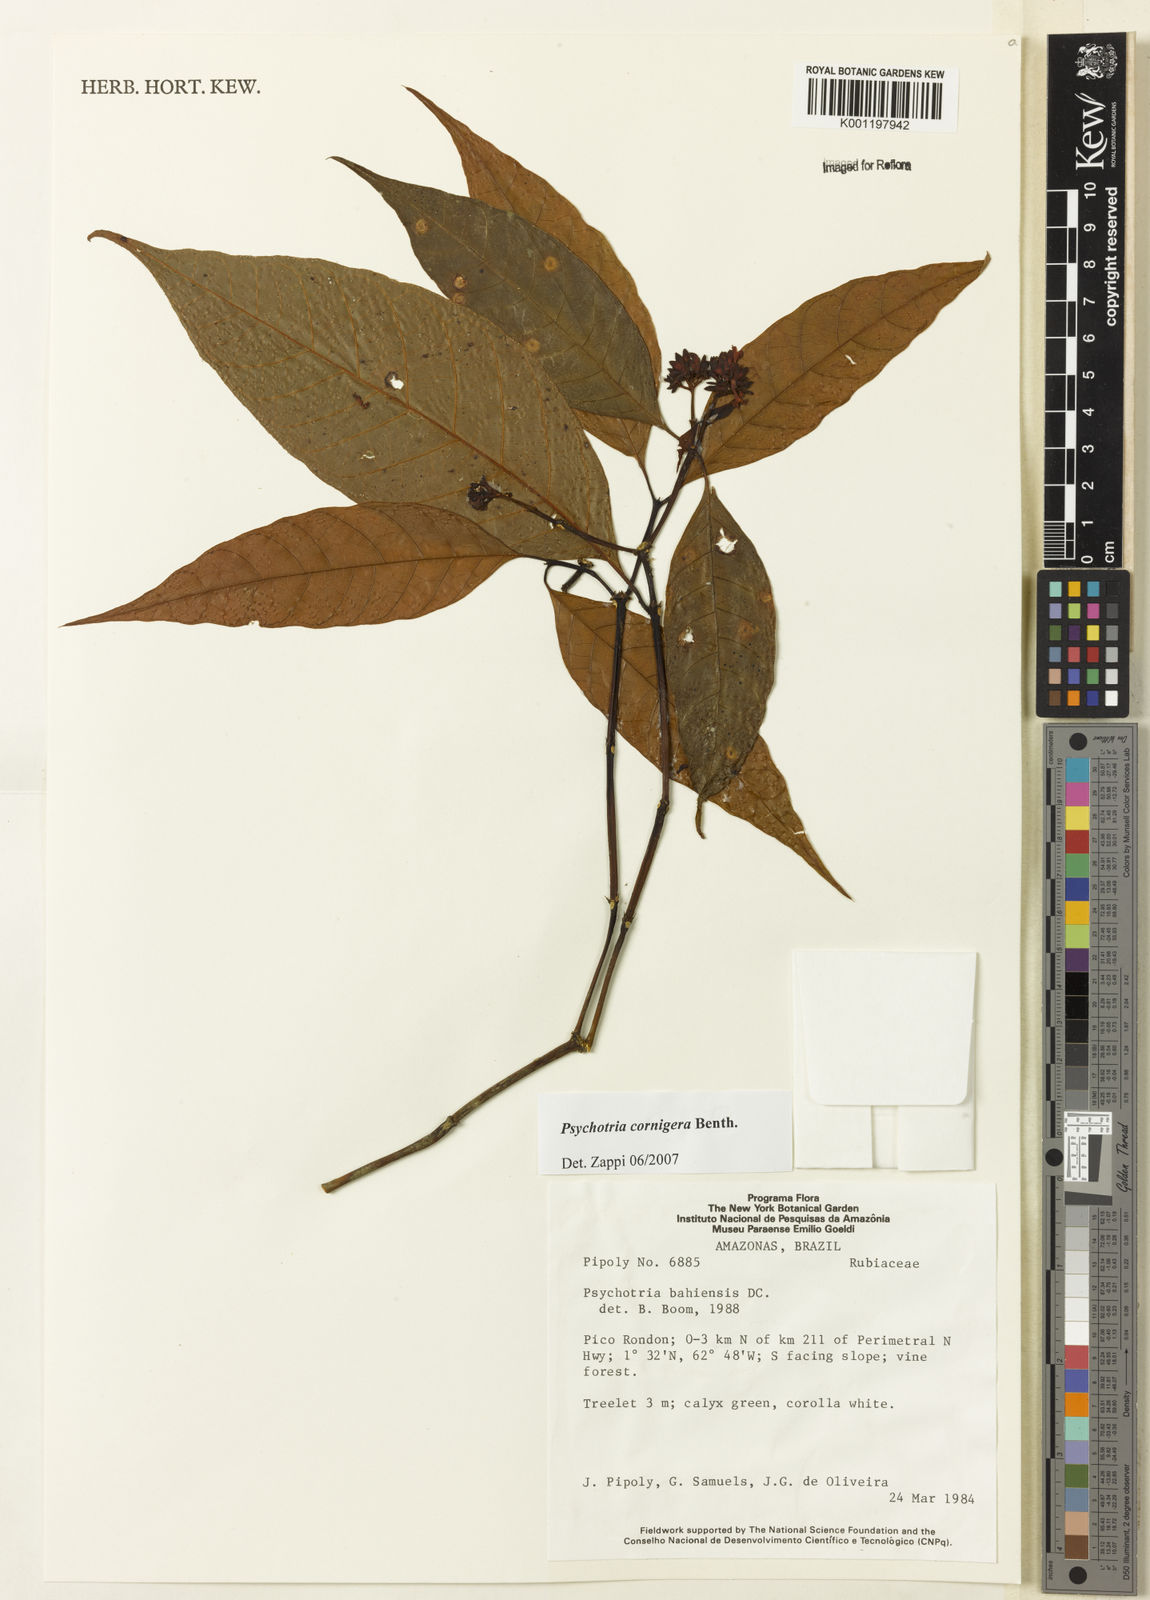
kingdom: Plantae
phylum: Tracheophyta
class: Magnoliopsida
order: Gentianales
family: Rubiaceae
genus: Psychotria
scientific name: Psychotria bahiensis
